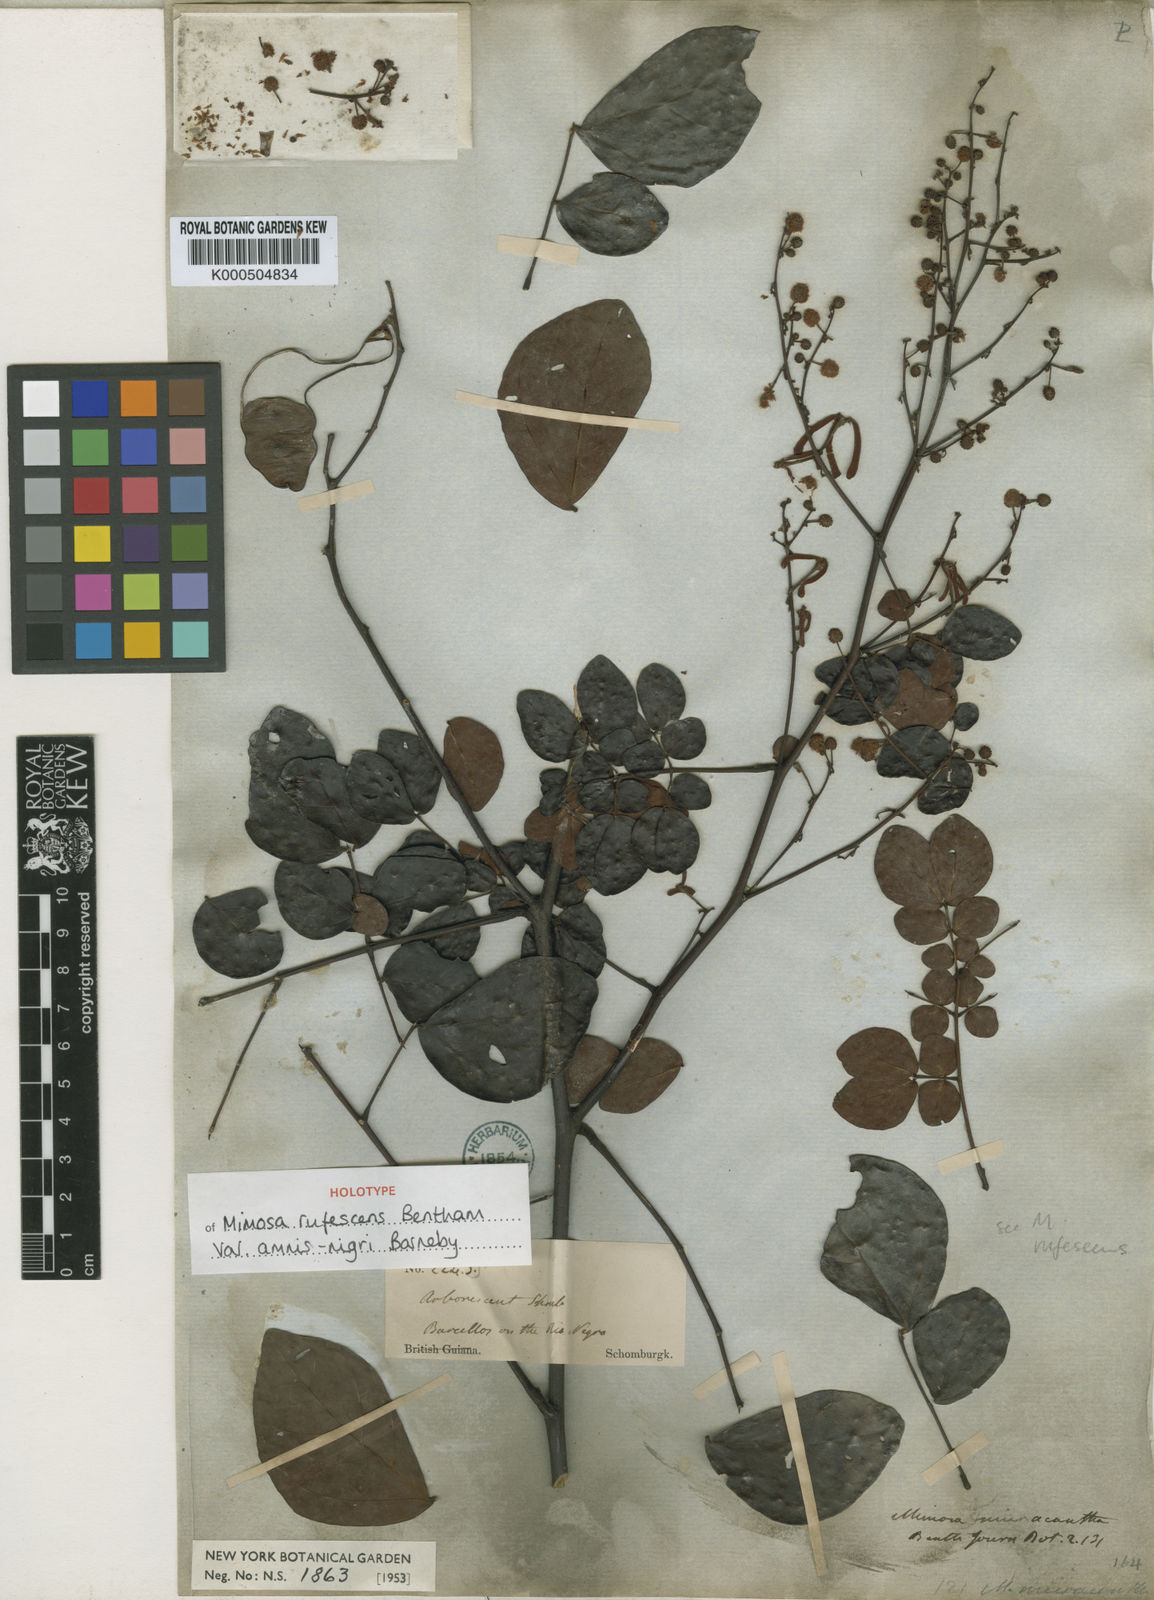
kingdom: Plantae
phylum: Tracheophyta
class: Magnoliopsida
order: Fabales
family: Fabaceae
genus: Mimosa
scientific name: Mimosa rufescens
